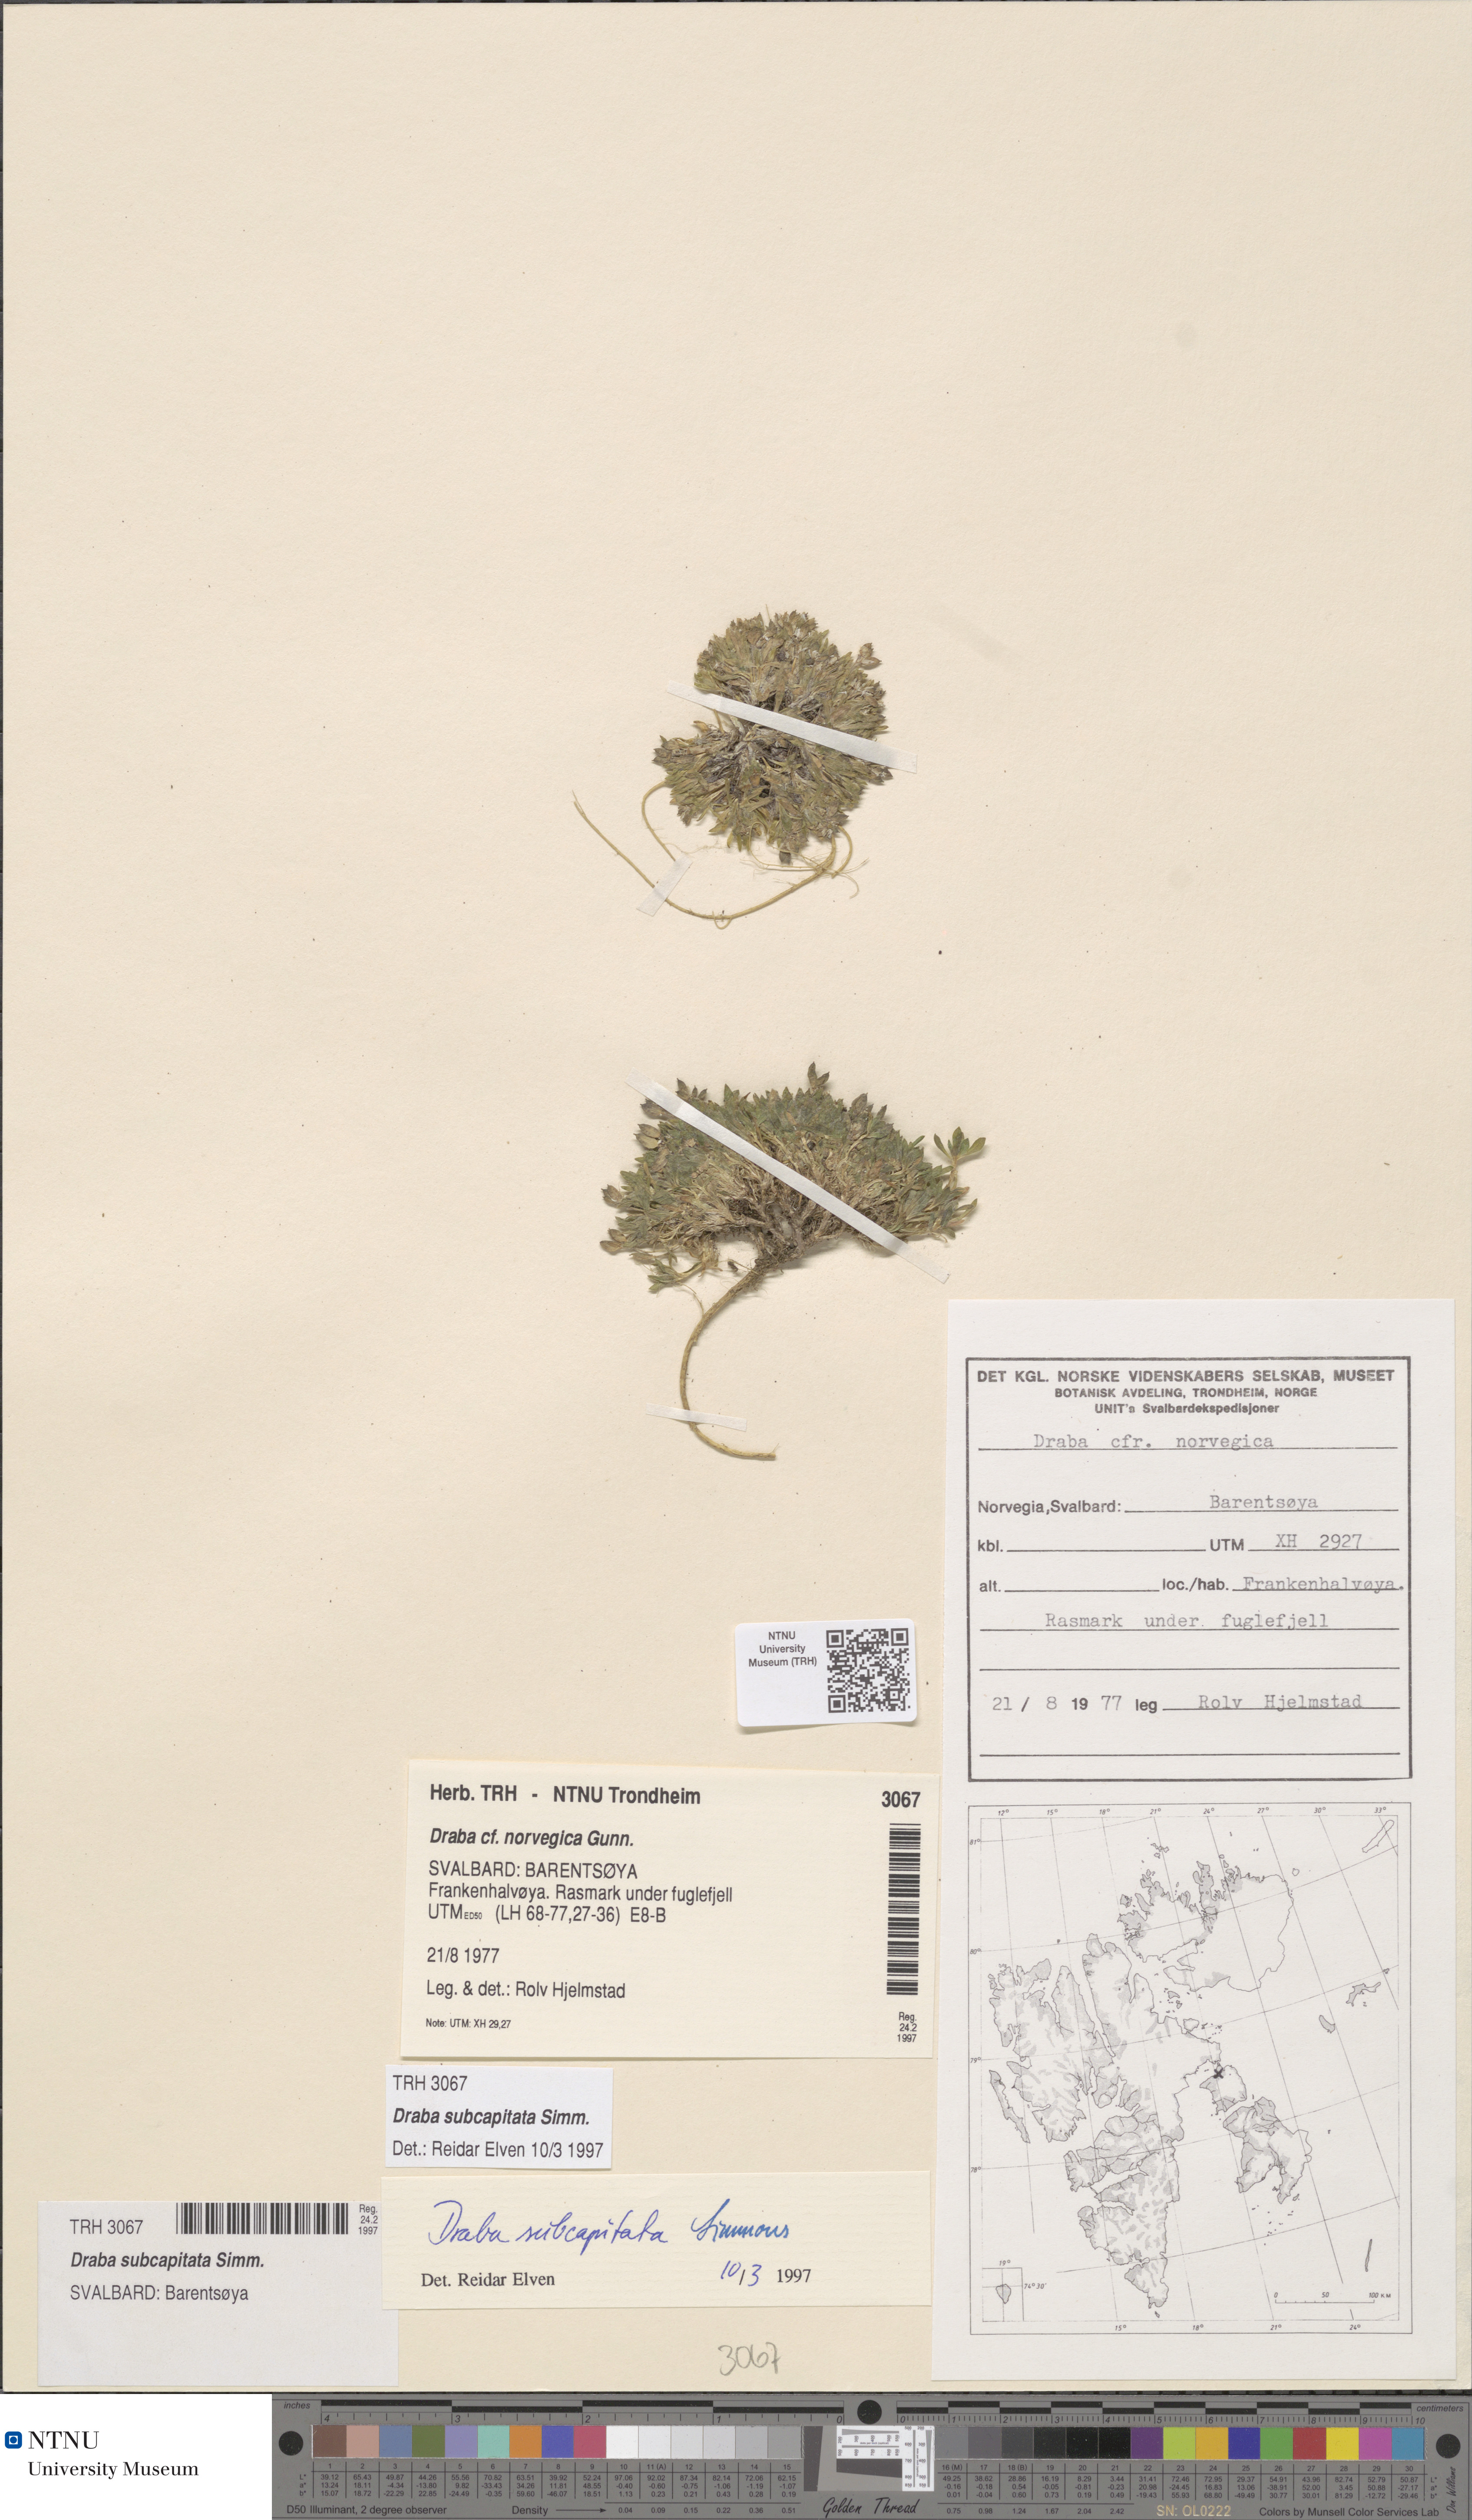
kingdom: Plantae
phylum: Tracheophyta
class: Magnoliopsida
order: Brassicales
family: Brassicaceae
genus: Draba
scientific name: Draba subcapitata
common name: Ellesmere island draba
